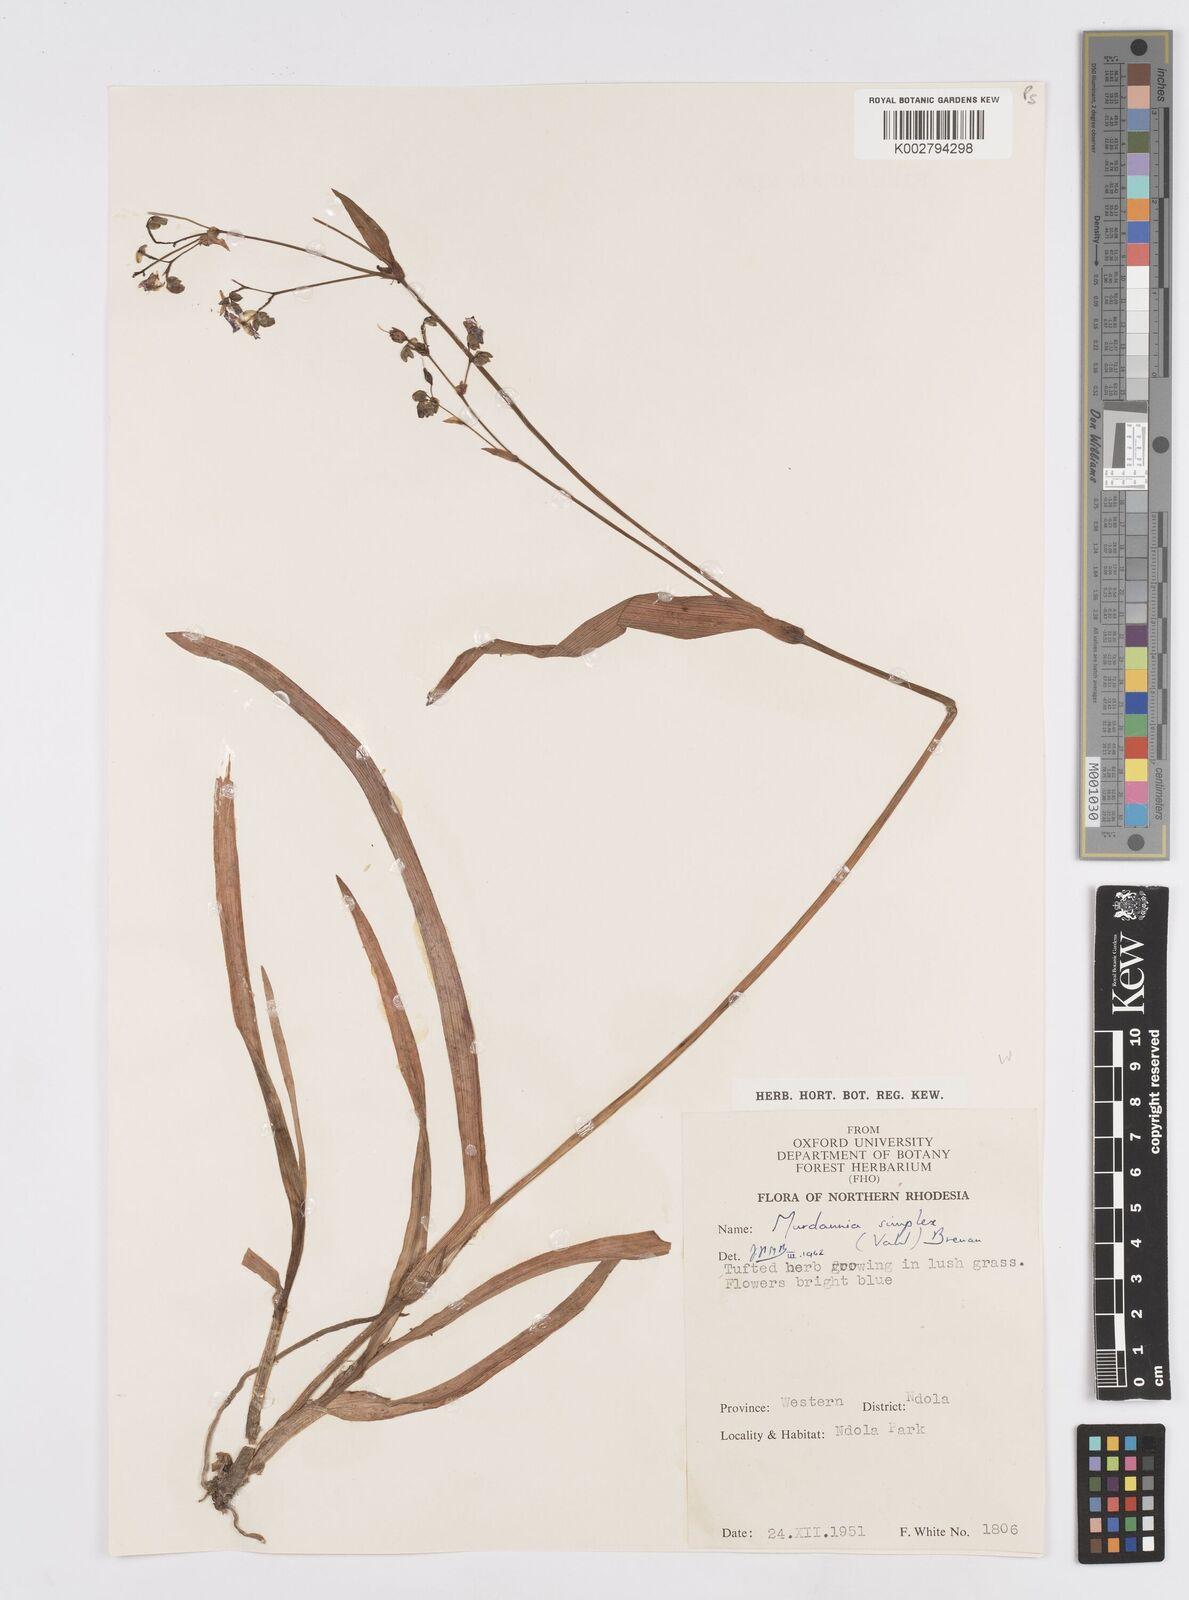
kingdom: Plantae
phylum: Tracheophyta
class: Liliopsida
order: Commelinales
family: Commelinaceae
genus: Murdannia
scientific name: Murdannia simplex
